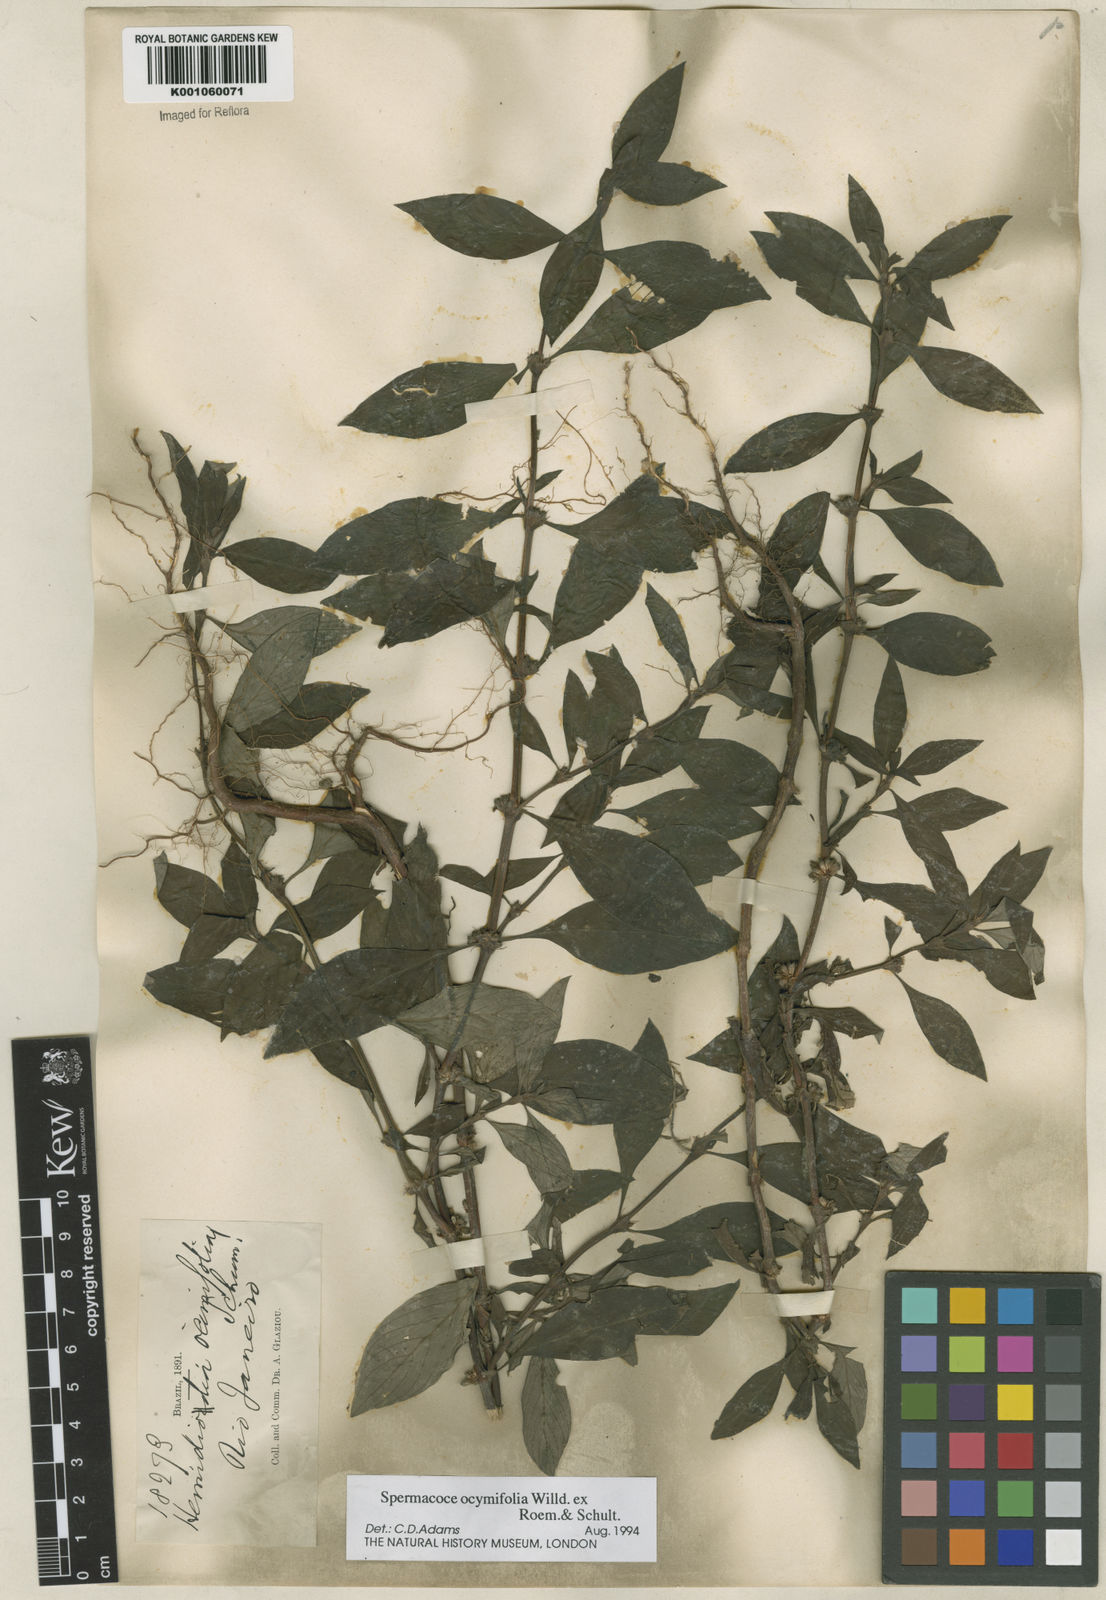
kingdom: Plantae
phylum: Tracheophyta
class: Magnoliopsida
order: Gentianales
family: Rubiaceae
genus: Spermacoce
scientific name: Spermacoce
